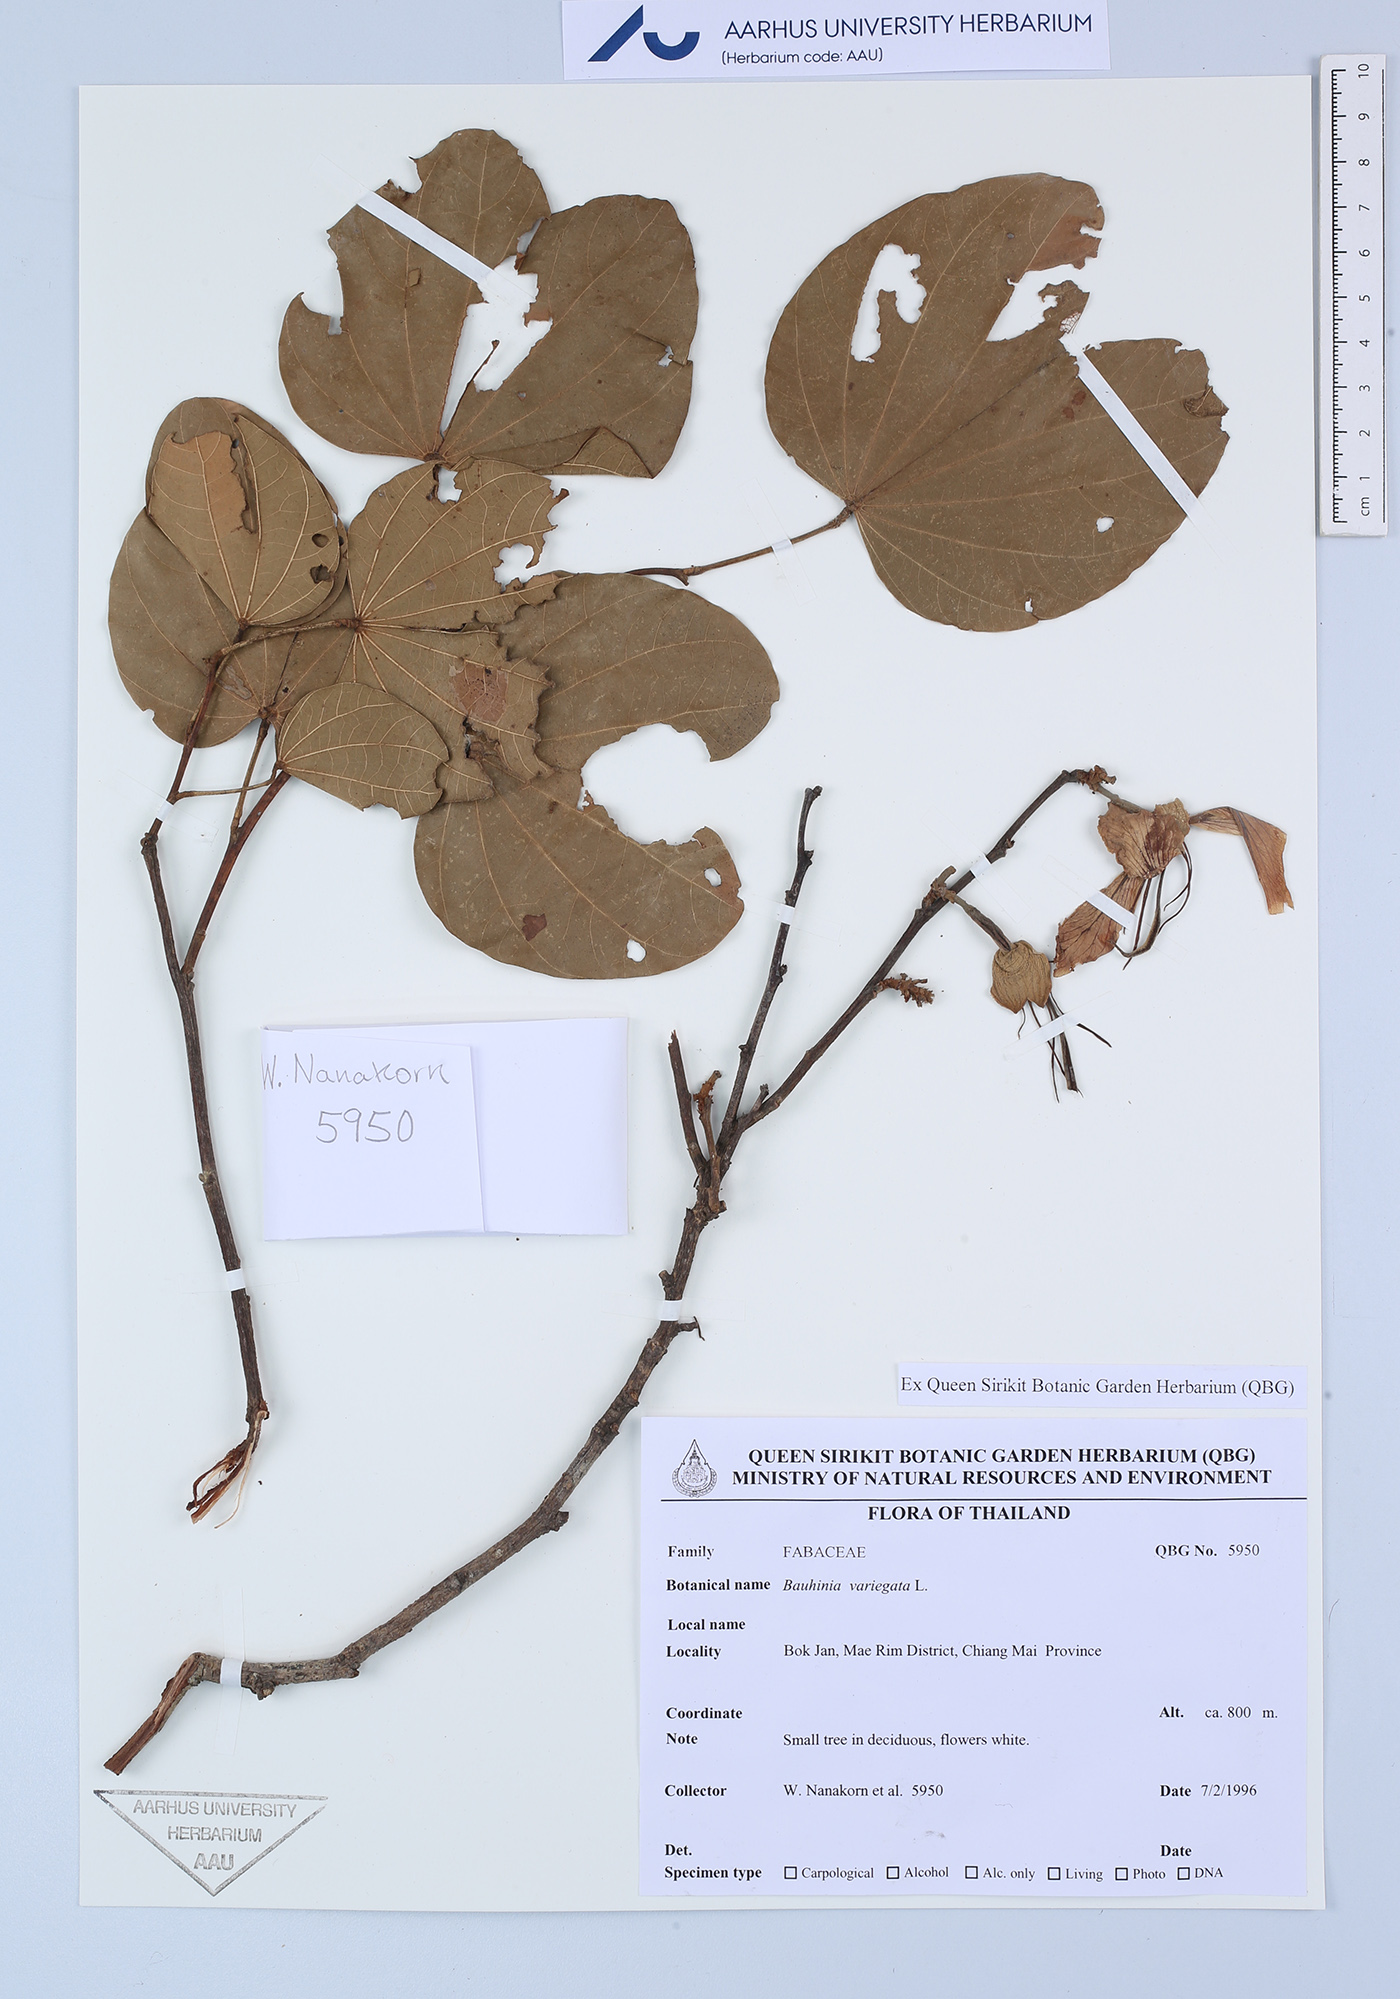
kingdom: Plantae
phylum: Tracheophyta
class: Magnoliopsida
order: Fabales
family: Fabaceae
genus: Bauhinia
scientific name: Bauhinia variegata
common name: Mountain ebony
